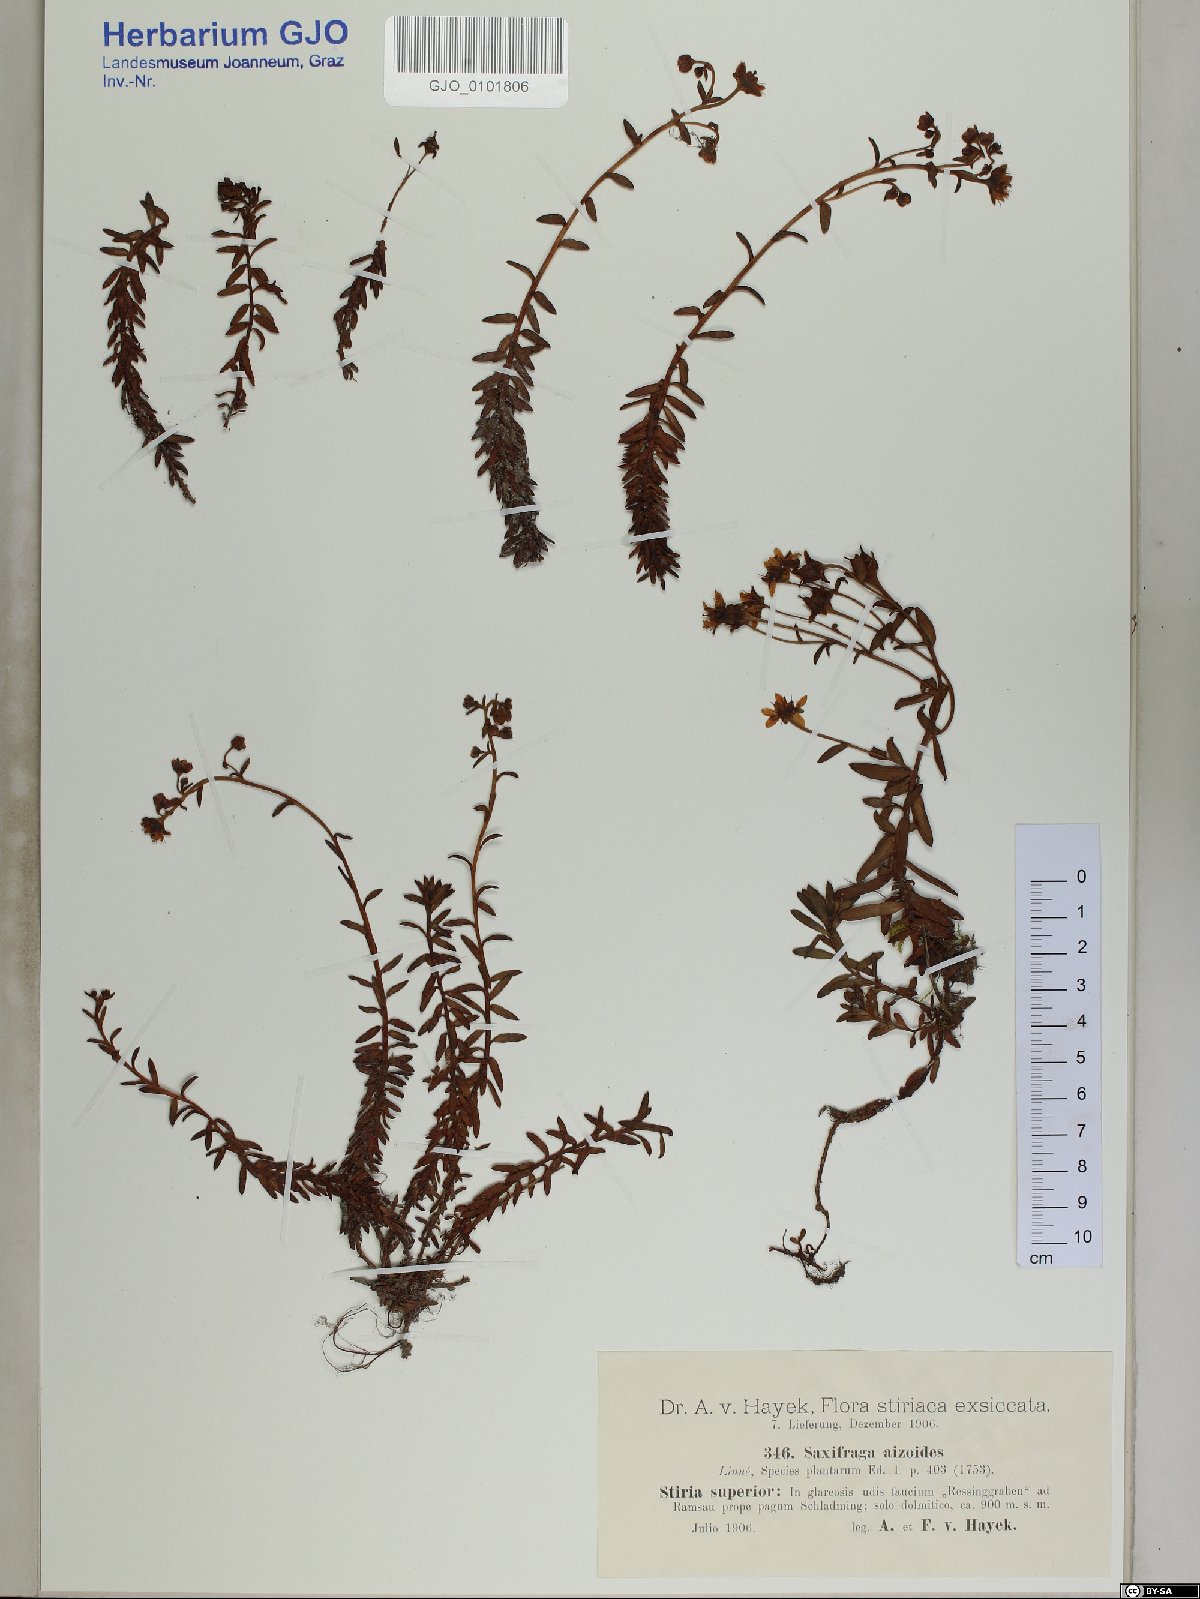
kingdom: Plantae
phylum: Tracheophyta
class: Magnoliopsida
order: Saxifragales
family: Saxifragaceae
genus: Saxifraga
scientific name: Saxifraga aizoides
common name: Yellow mountain saxifrage
